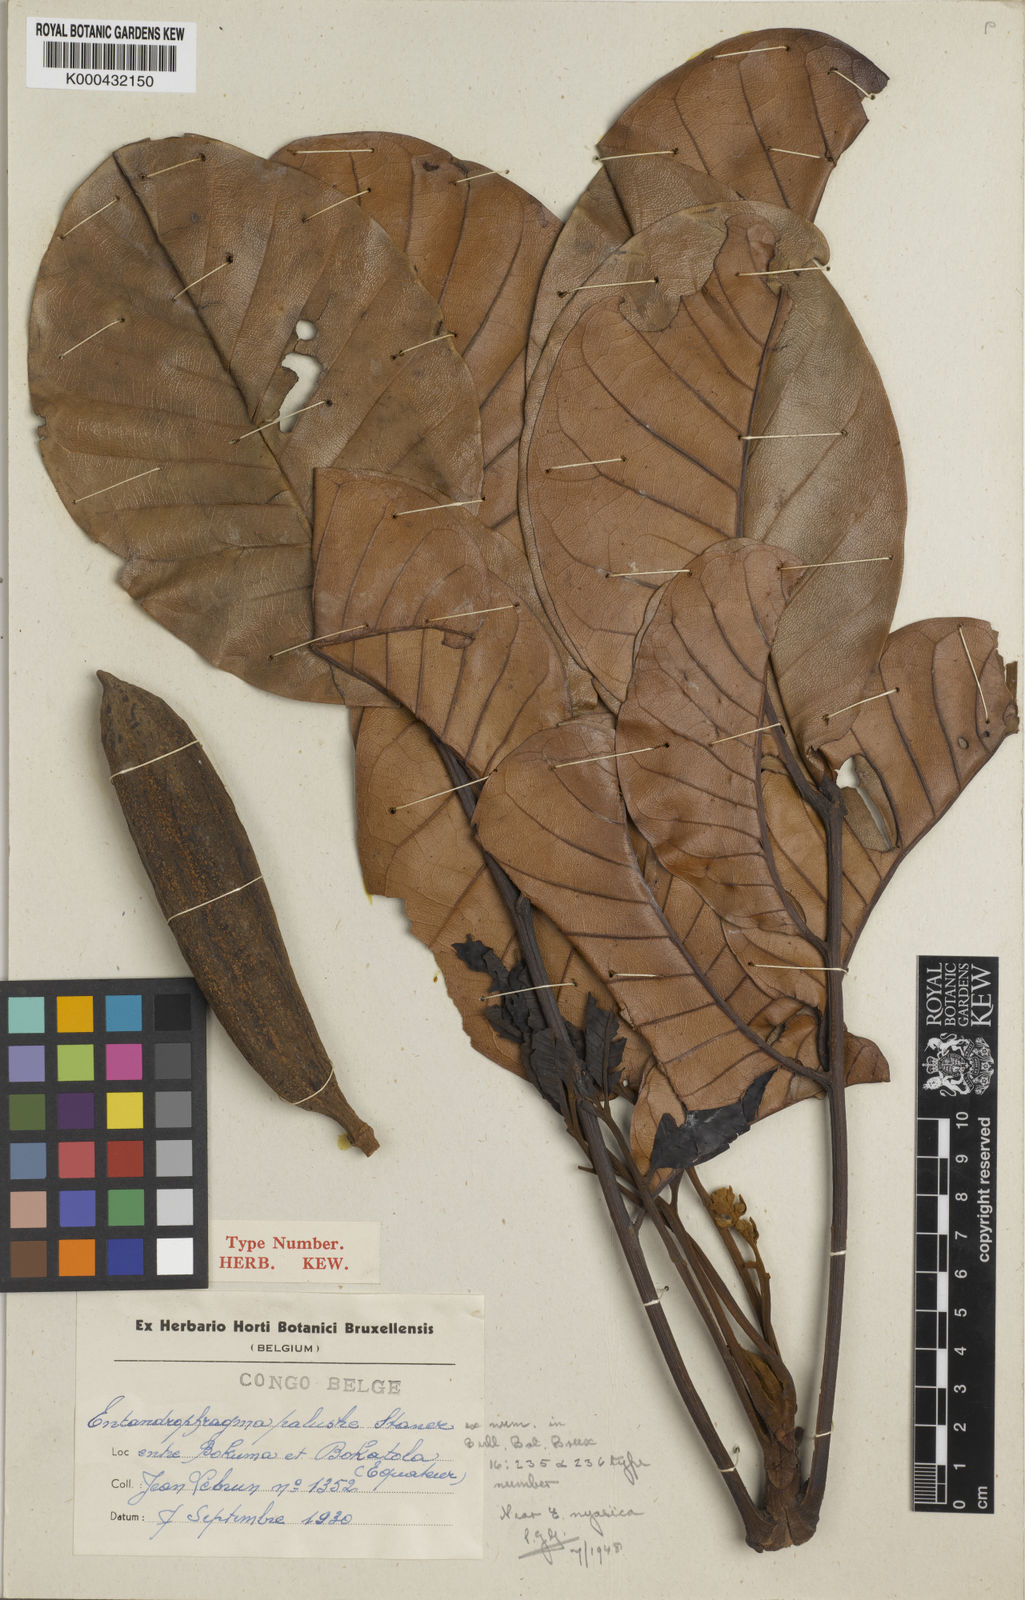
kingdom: Plantae
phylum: Tracheophyta
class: Magnoliopsida
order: Sapindales
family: Meliaceae
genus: Entandrophragma
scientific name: Entandrophragma palustre
